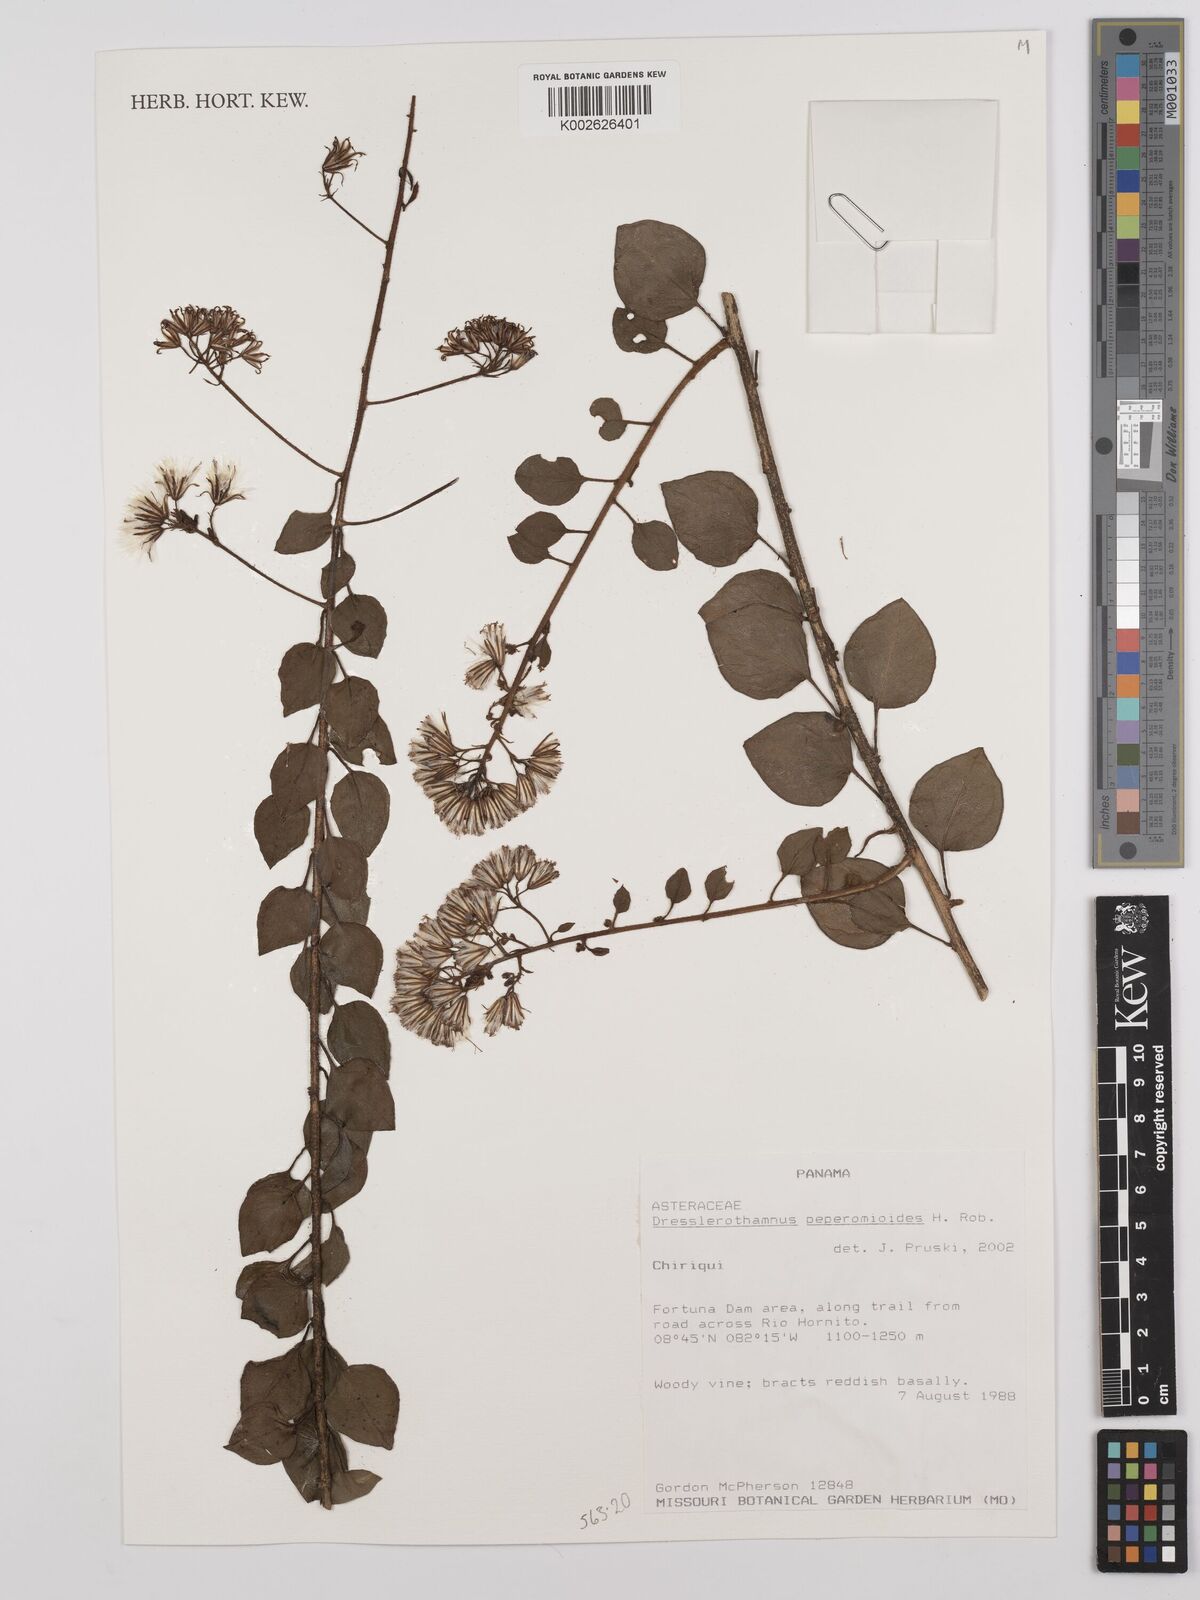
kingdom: Plantae
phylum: Tracheophyta
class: Magnoliopsida
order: Asterales
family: Asteraceae
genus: Dresslerothamnus
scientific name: Dresslerothamnus peperomioides
